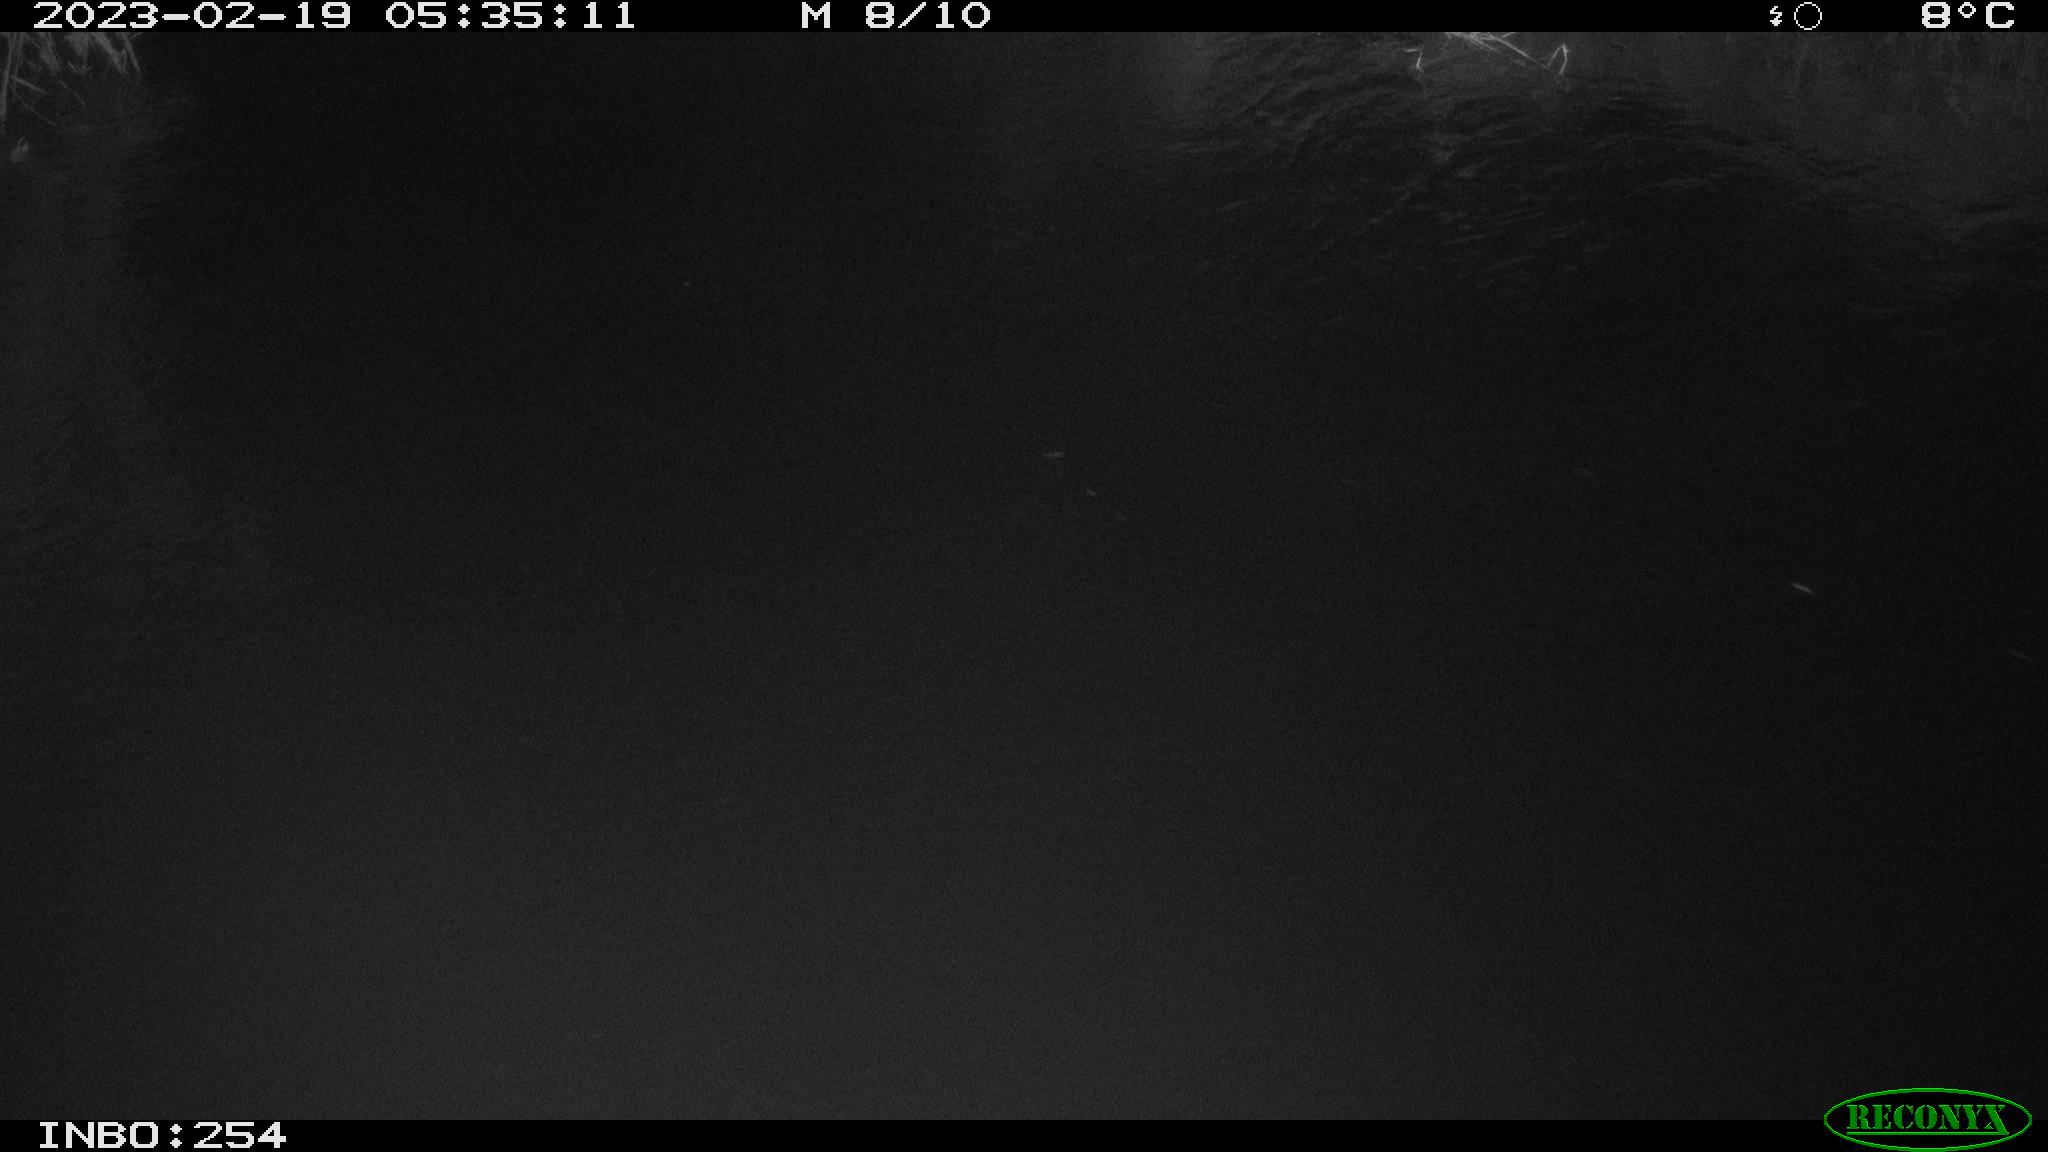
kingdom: Animalia
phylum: Chordata
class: Aves
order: Anseriformes
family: Anatidae
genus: Anas
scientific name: Anas
